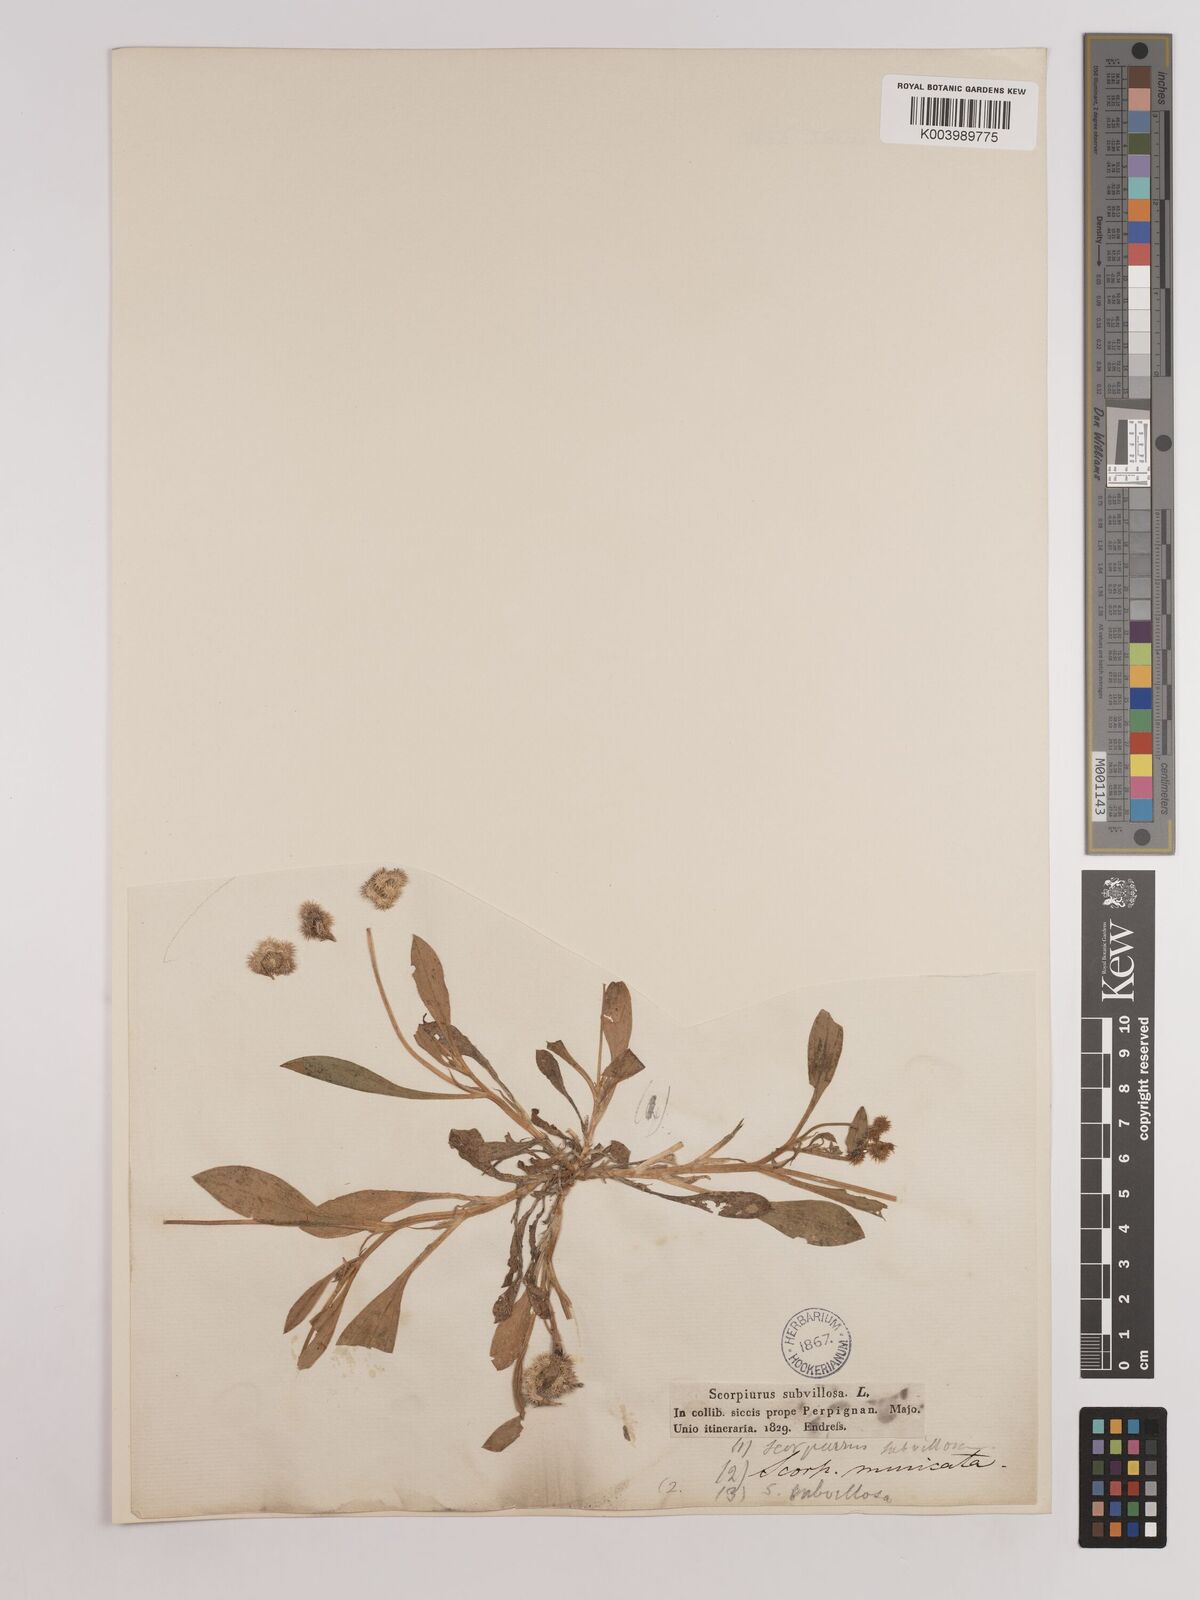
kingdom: Plantae
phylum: Tracheophyta
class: Magnoliopsida
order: Fabales
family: Fabaceae
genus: Scorpiurus
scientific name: Scorpiurus muricatus
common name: Caterpillar-plant
